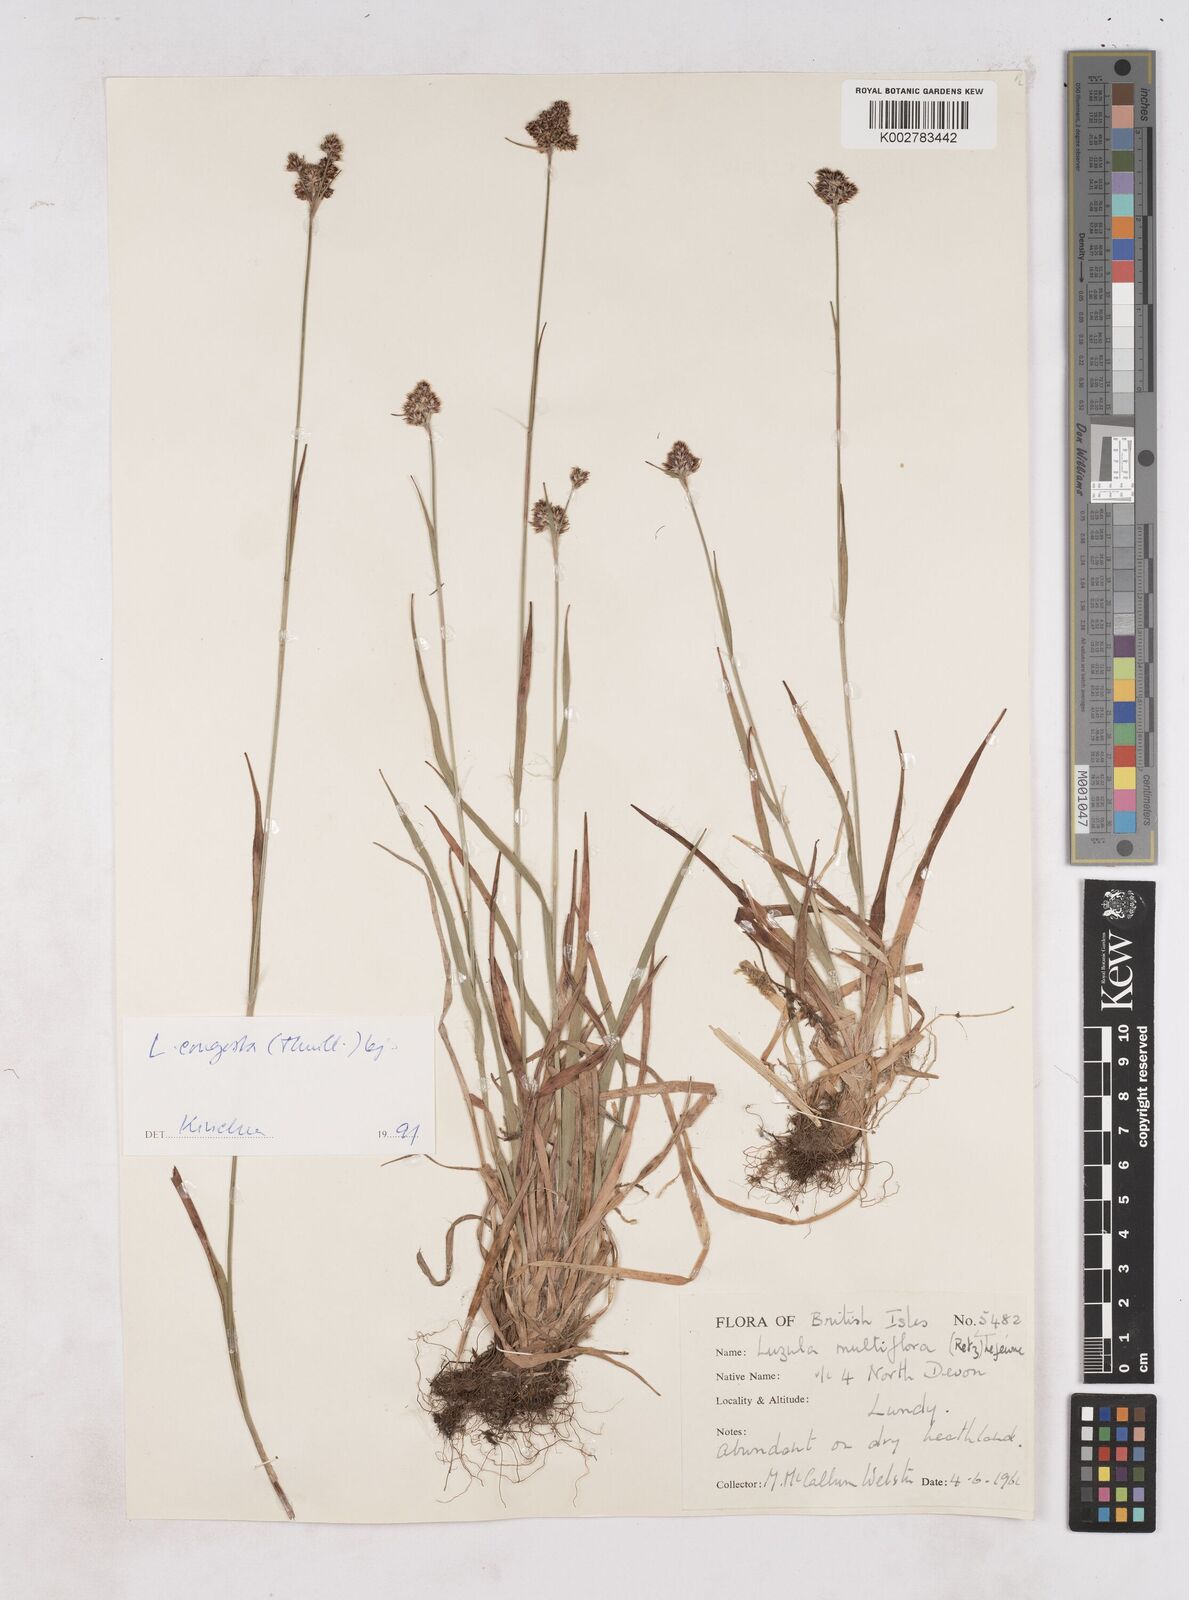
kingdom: Plantae
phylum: Tracheophyta
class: Liliopsida
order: Poales
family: Juncaceae
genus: Luzula
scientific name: Luzula campestris
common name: Field wood-rush
